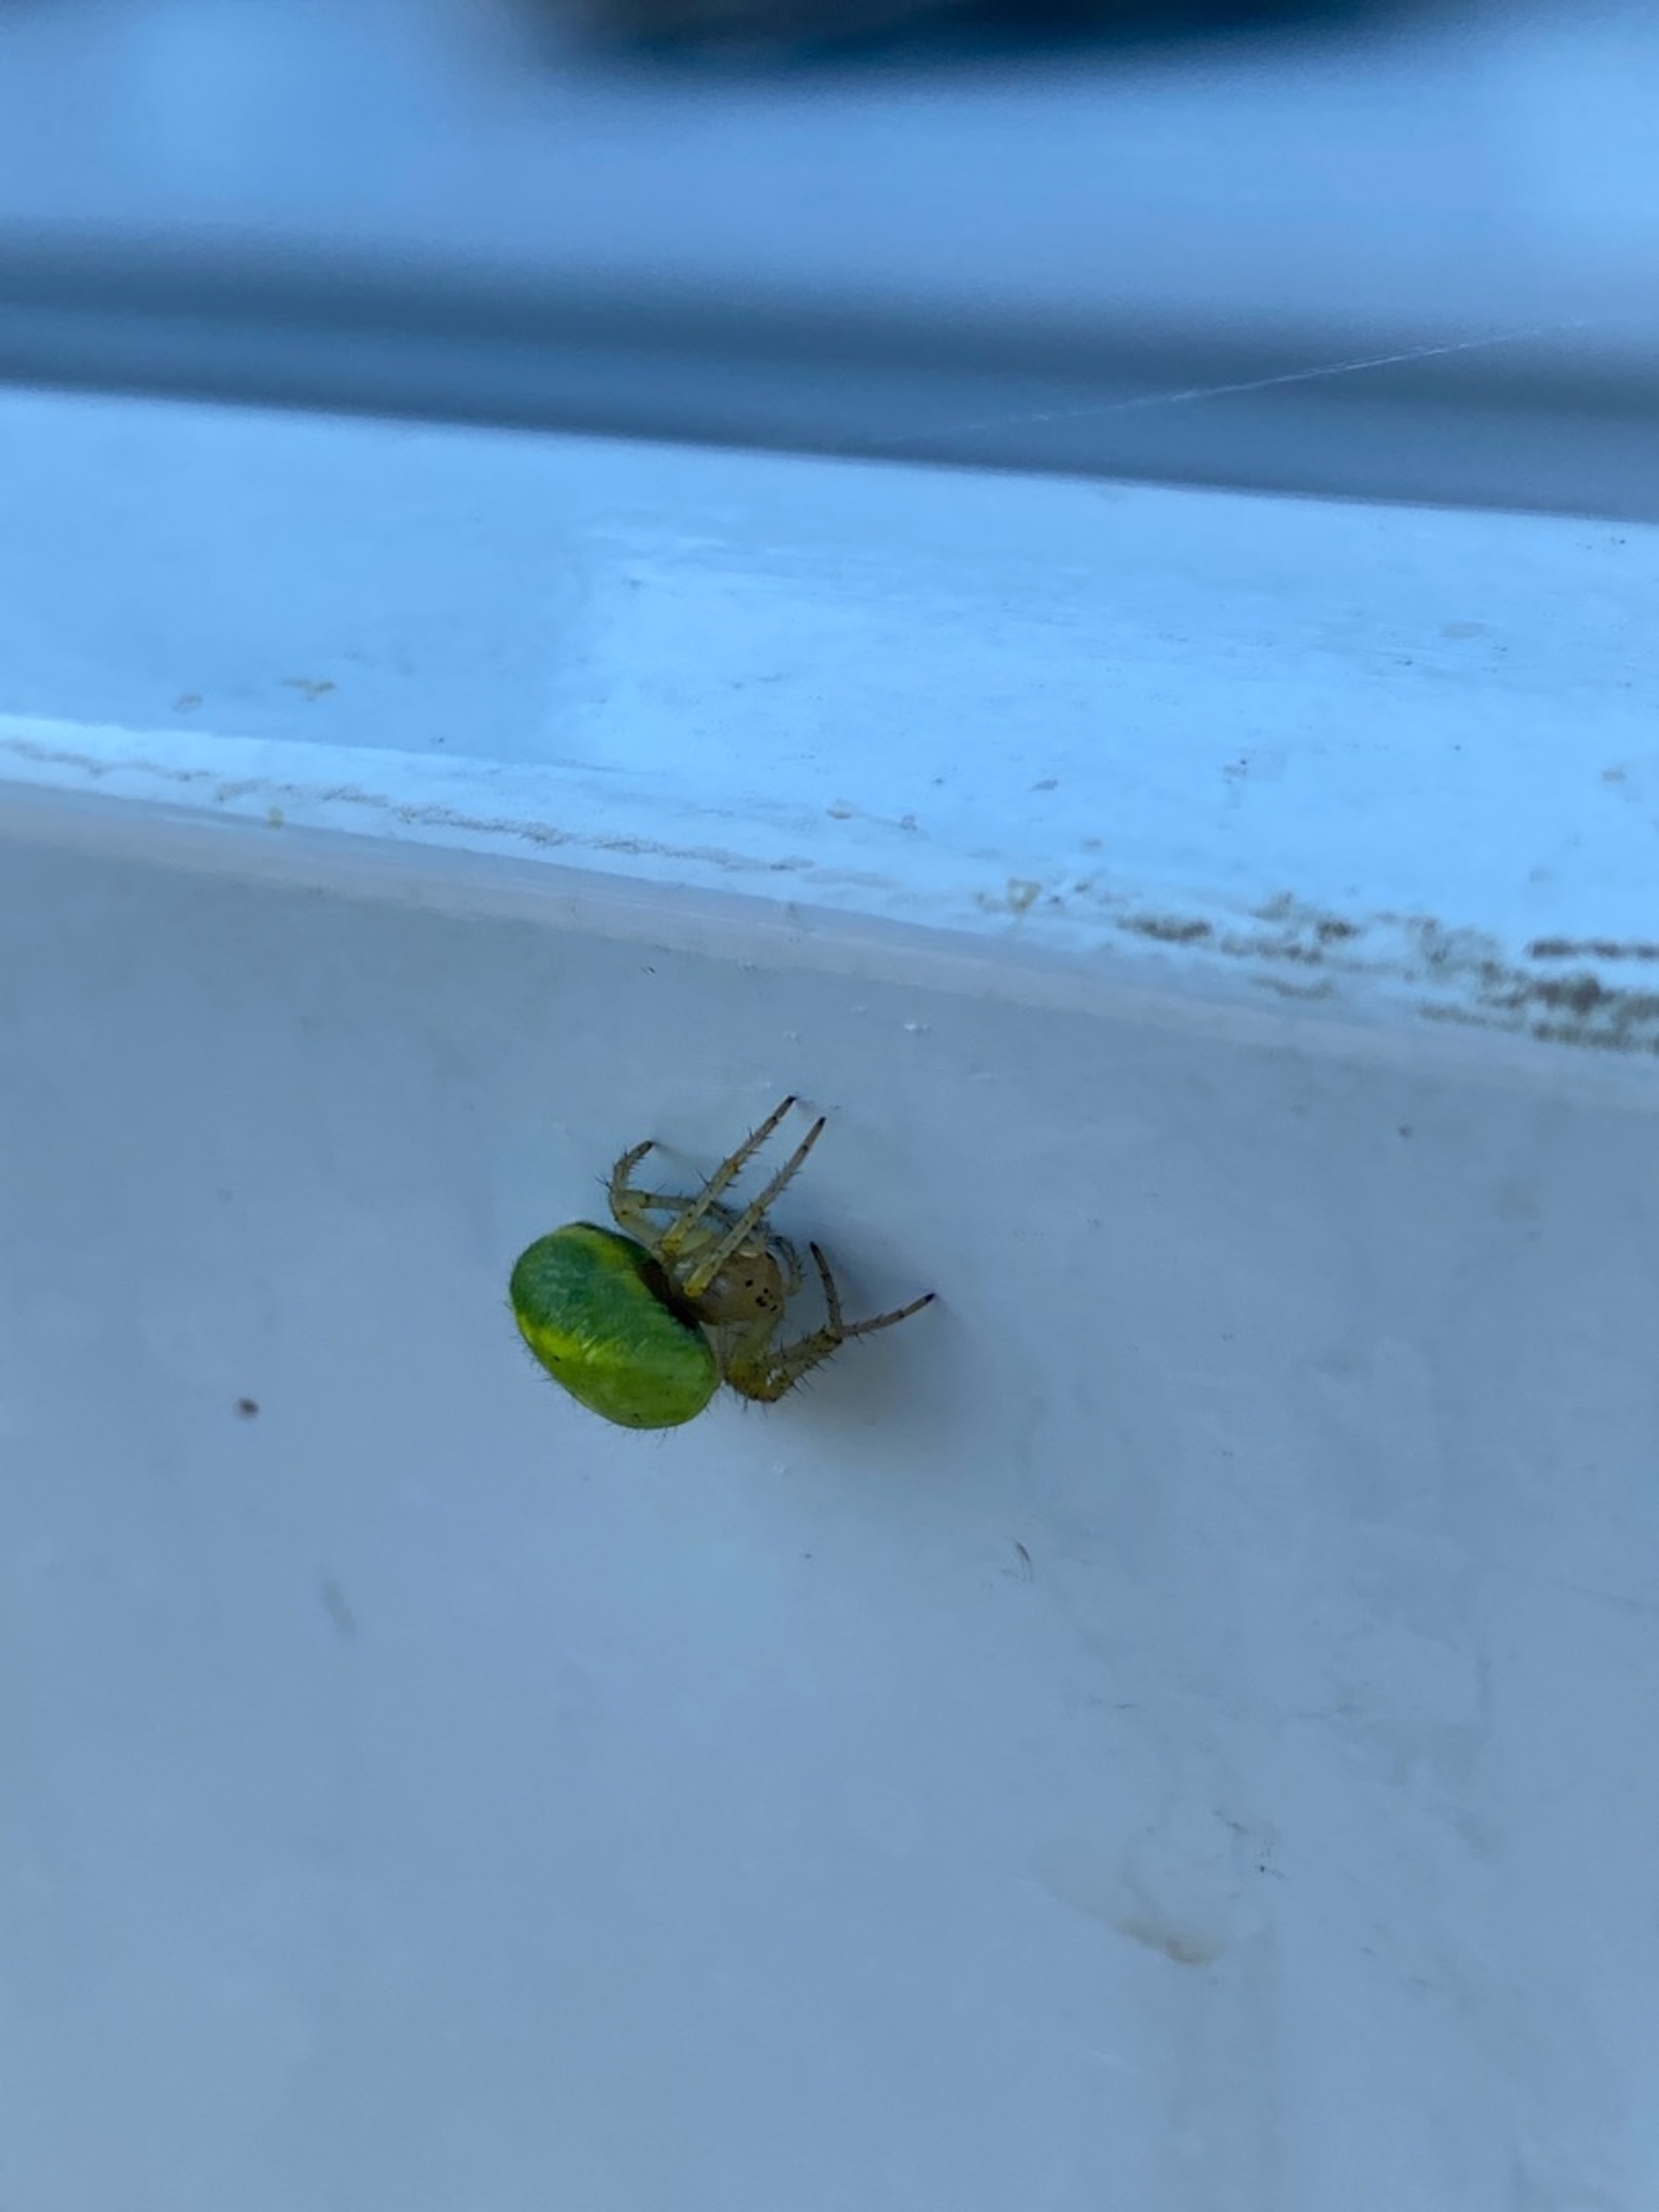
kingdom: Animalia
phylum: Arthropoda
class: Arachnida
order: Araneae
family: Araneidae
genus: Araniella
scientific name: Araniella
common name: Agurkeedderkopslægten
